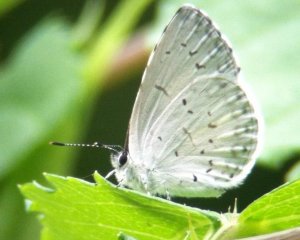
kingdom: Animalia
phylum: Arthropoda
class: Insecta
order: Lepidoptera
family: Lycaenidae
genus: Celastrina
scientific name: Celastrina neglectamajor
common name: Appalachian Azure
